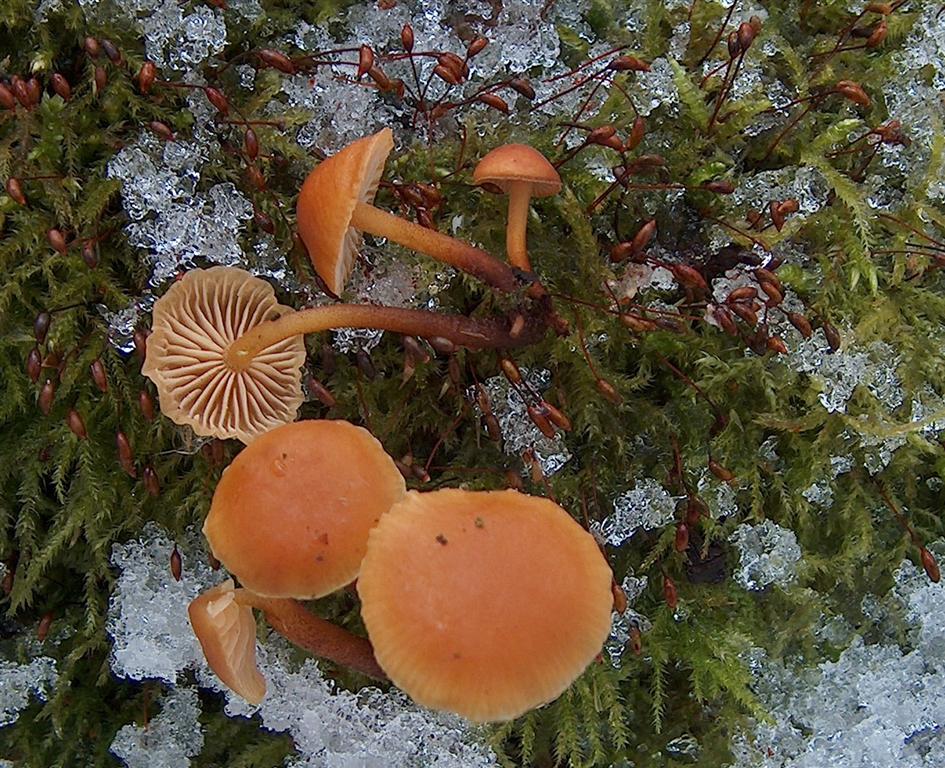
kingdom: Fungi
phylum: Basidiomycota
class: Agaricomycetes
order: Agaricales
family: Physalacriaceae
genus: Flammulina
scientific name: Flammulina velutipes
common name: gul fløjlsfod
